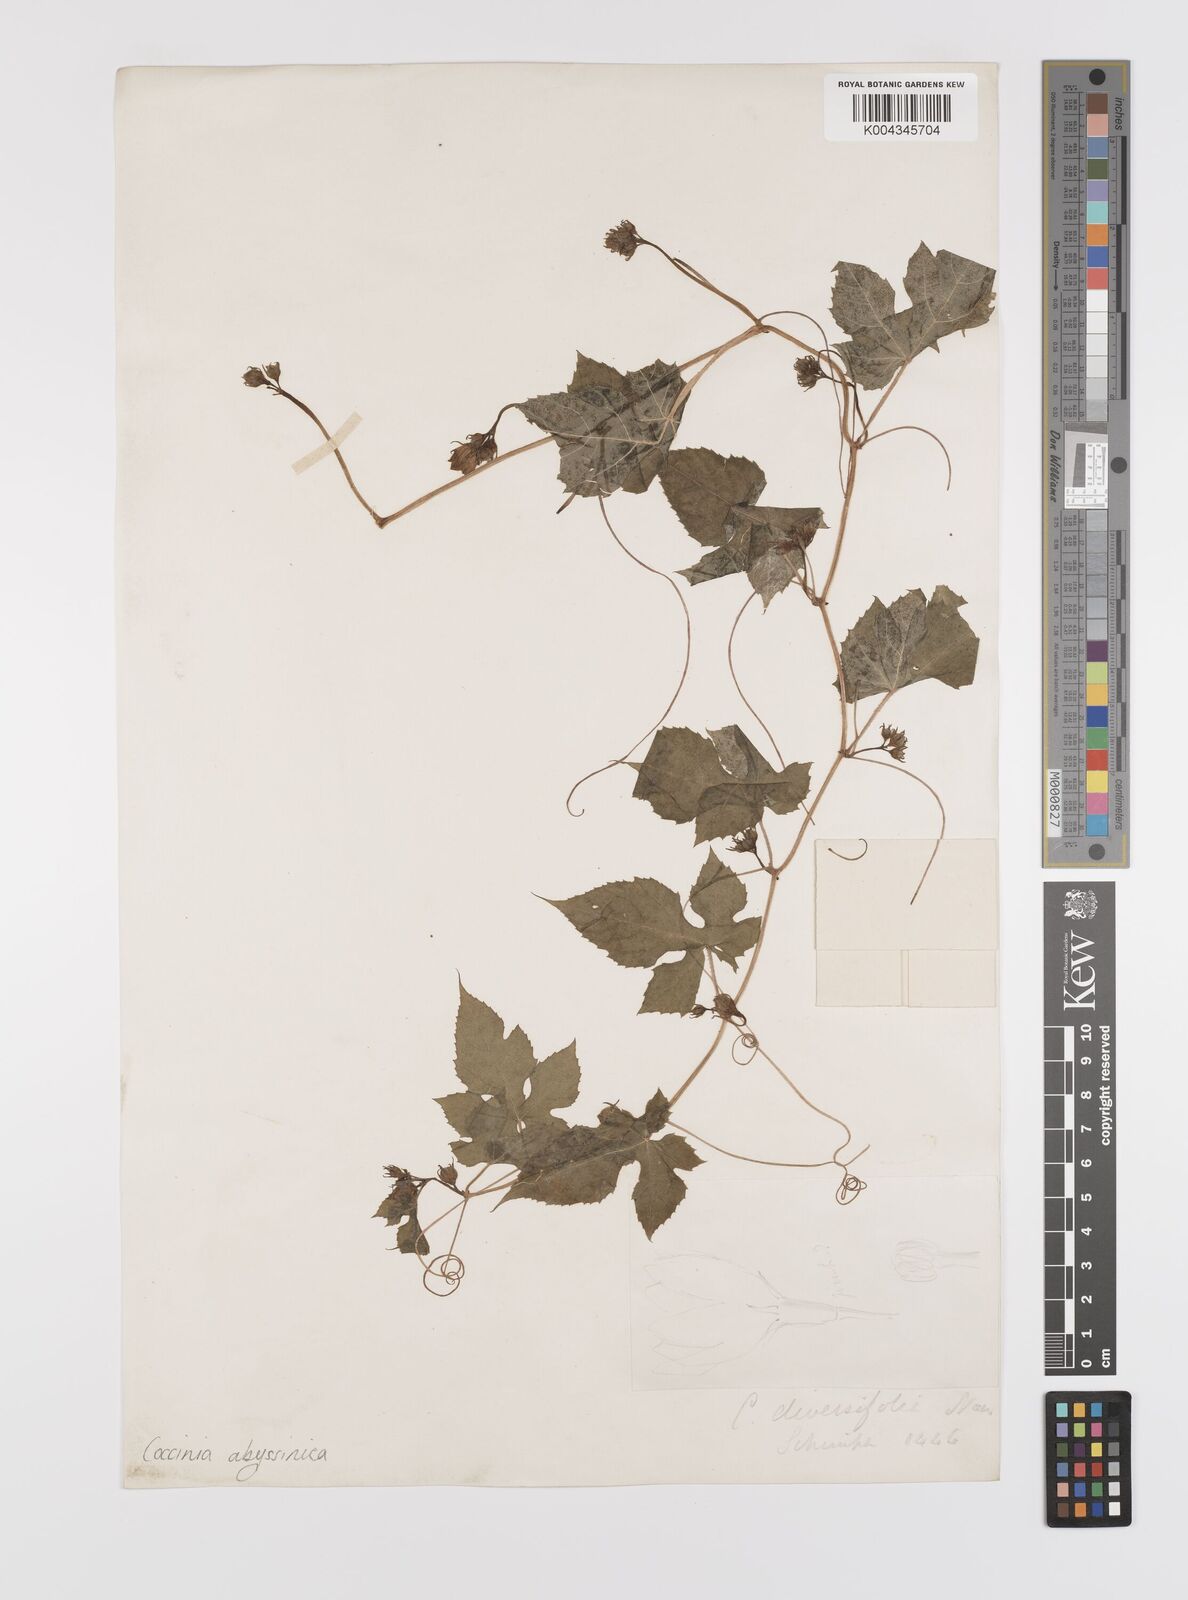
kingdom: Plantae
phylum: Tracheophyta
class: Magnoliopsida
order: Cucurbitales
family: Cucurbitaceae
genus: Coccinia
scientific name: Coccinia abyssinica
